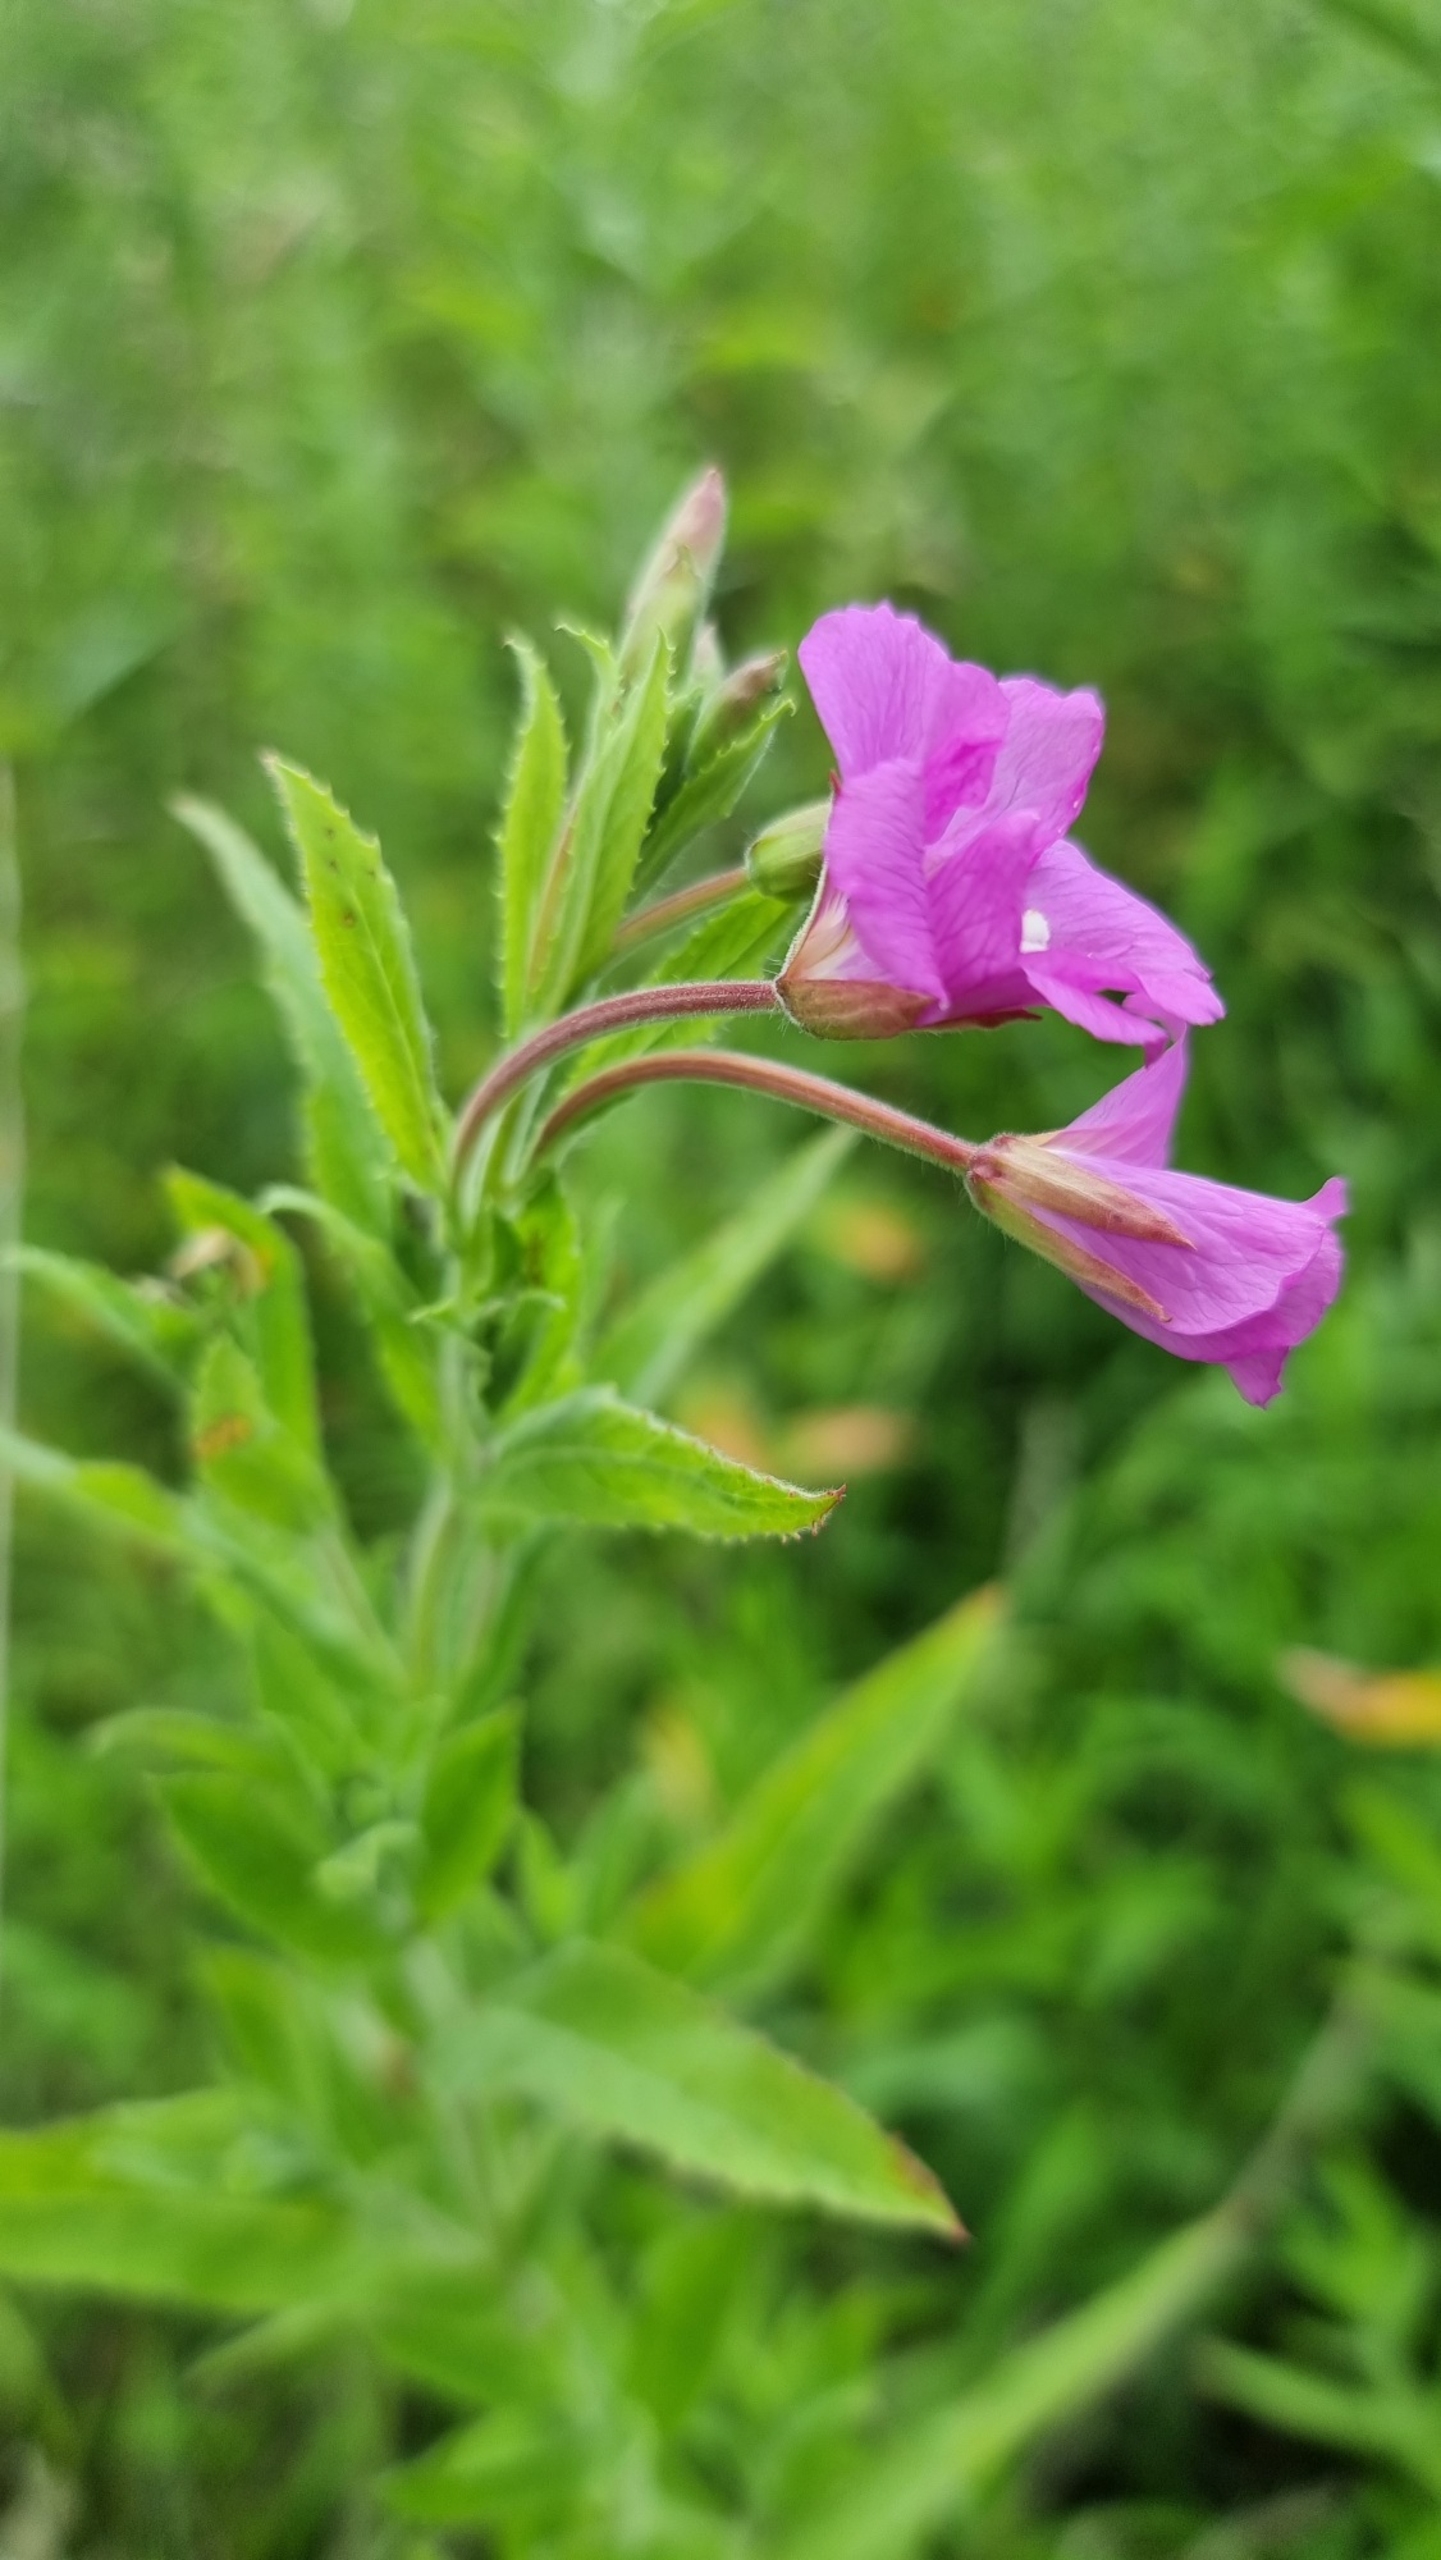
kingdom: Plantae
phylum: Tracheophyta
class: Magnoliopsida
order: Myrtales
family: Onagraceae
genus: Epilobium
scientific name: Epilobium hirsutum
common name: Lådden dueurt
